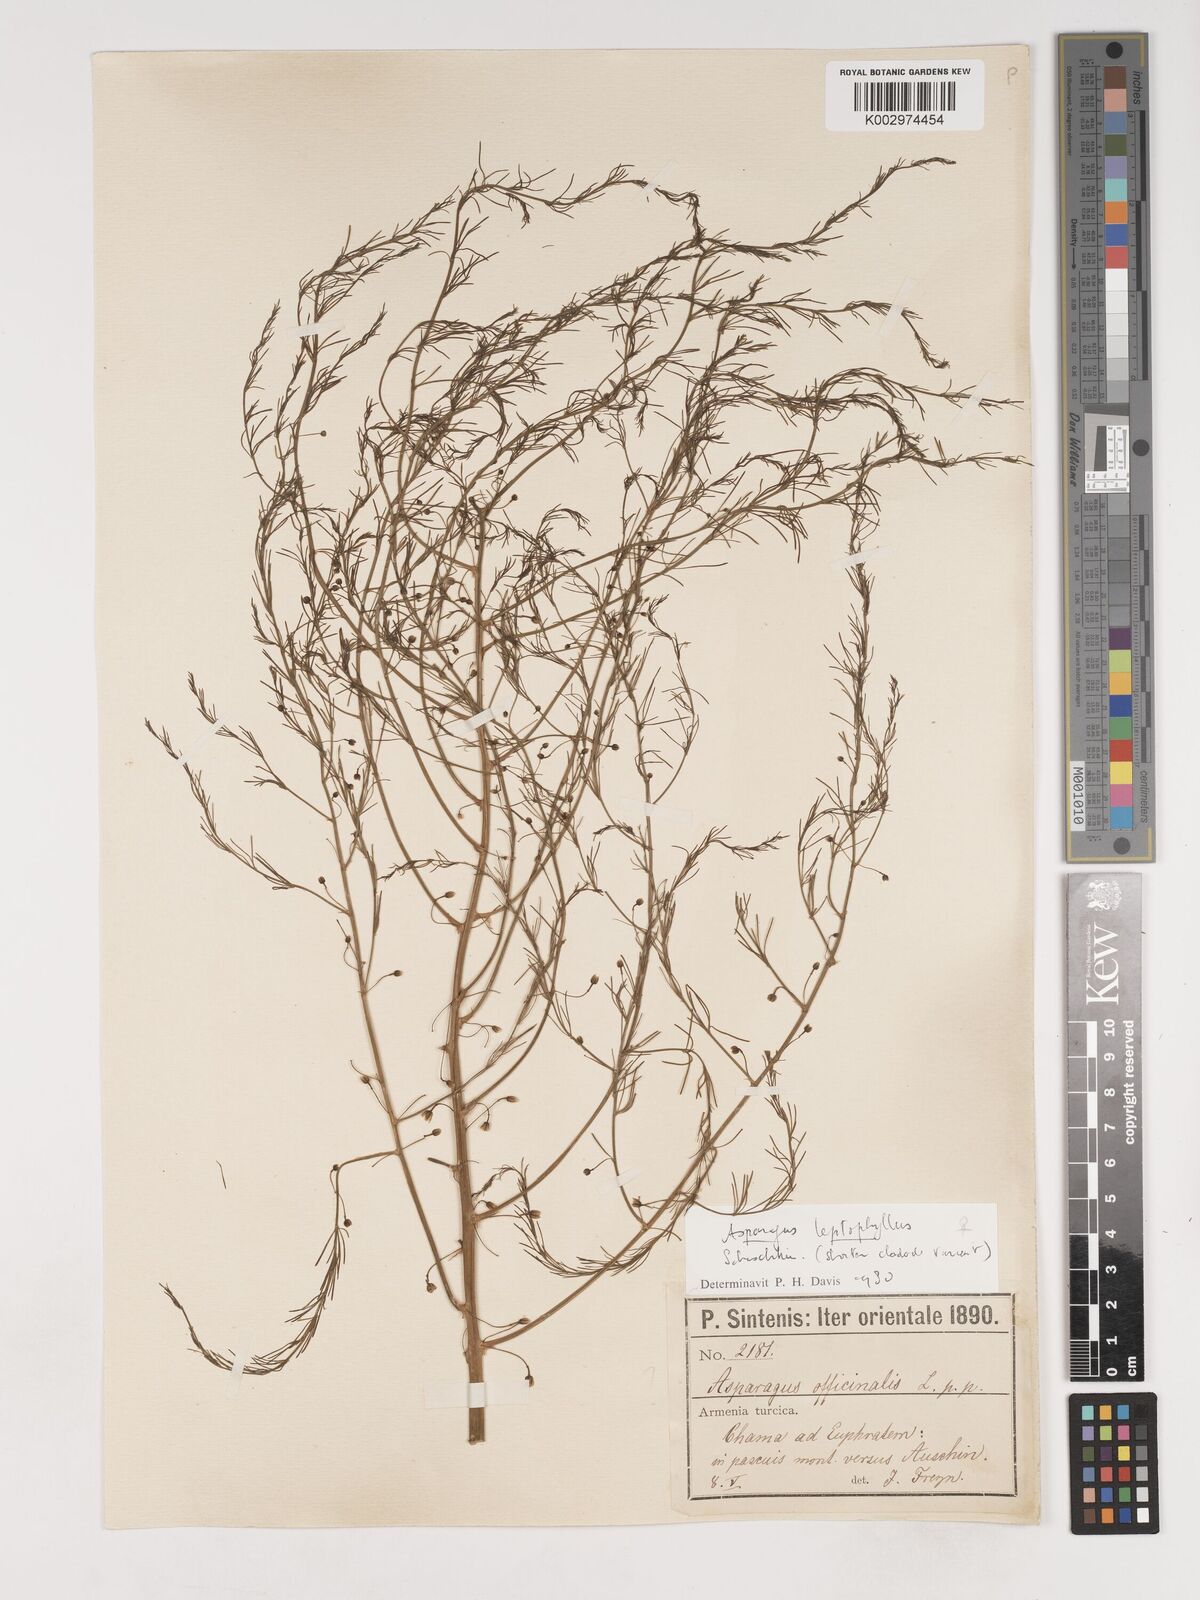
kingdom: Plantae
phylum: Tracheophyta
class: Liliopsida
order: Asparagales
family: Asparagaceae
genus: Asparagus
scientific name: Asparagus persicus
